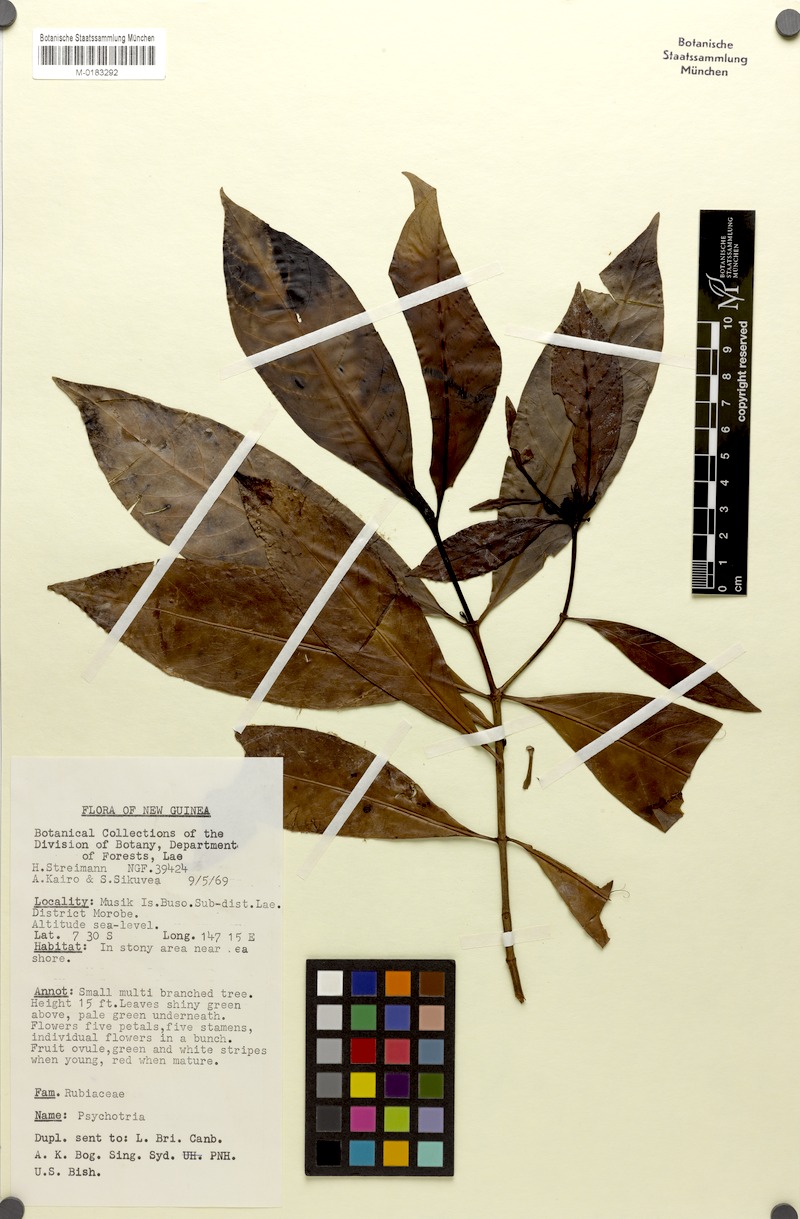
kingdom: Plantae
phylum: Tracheophyta
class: Magnoliopsida
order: Gentianales
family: Rubiaceae
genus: Psychotria
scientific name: Psychotria kairoana
